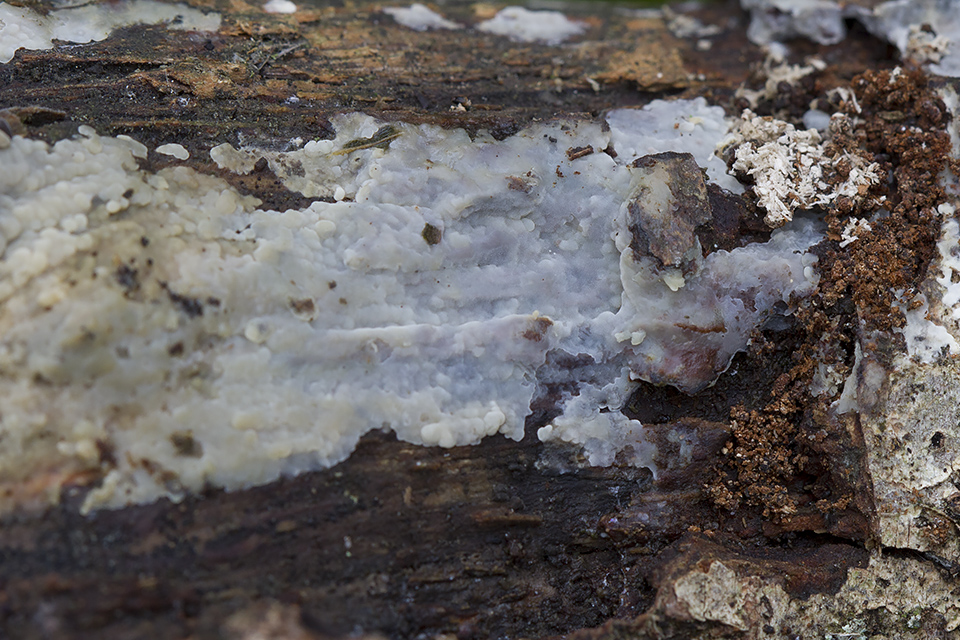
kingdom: Fungi
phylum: Basidiomycota
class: Agaricomycetes
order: Agaricales
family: Radulomycetaceae
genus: Radulomyces
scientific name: Radulomyces confluens
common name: glat naftalinskind
